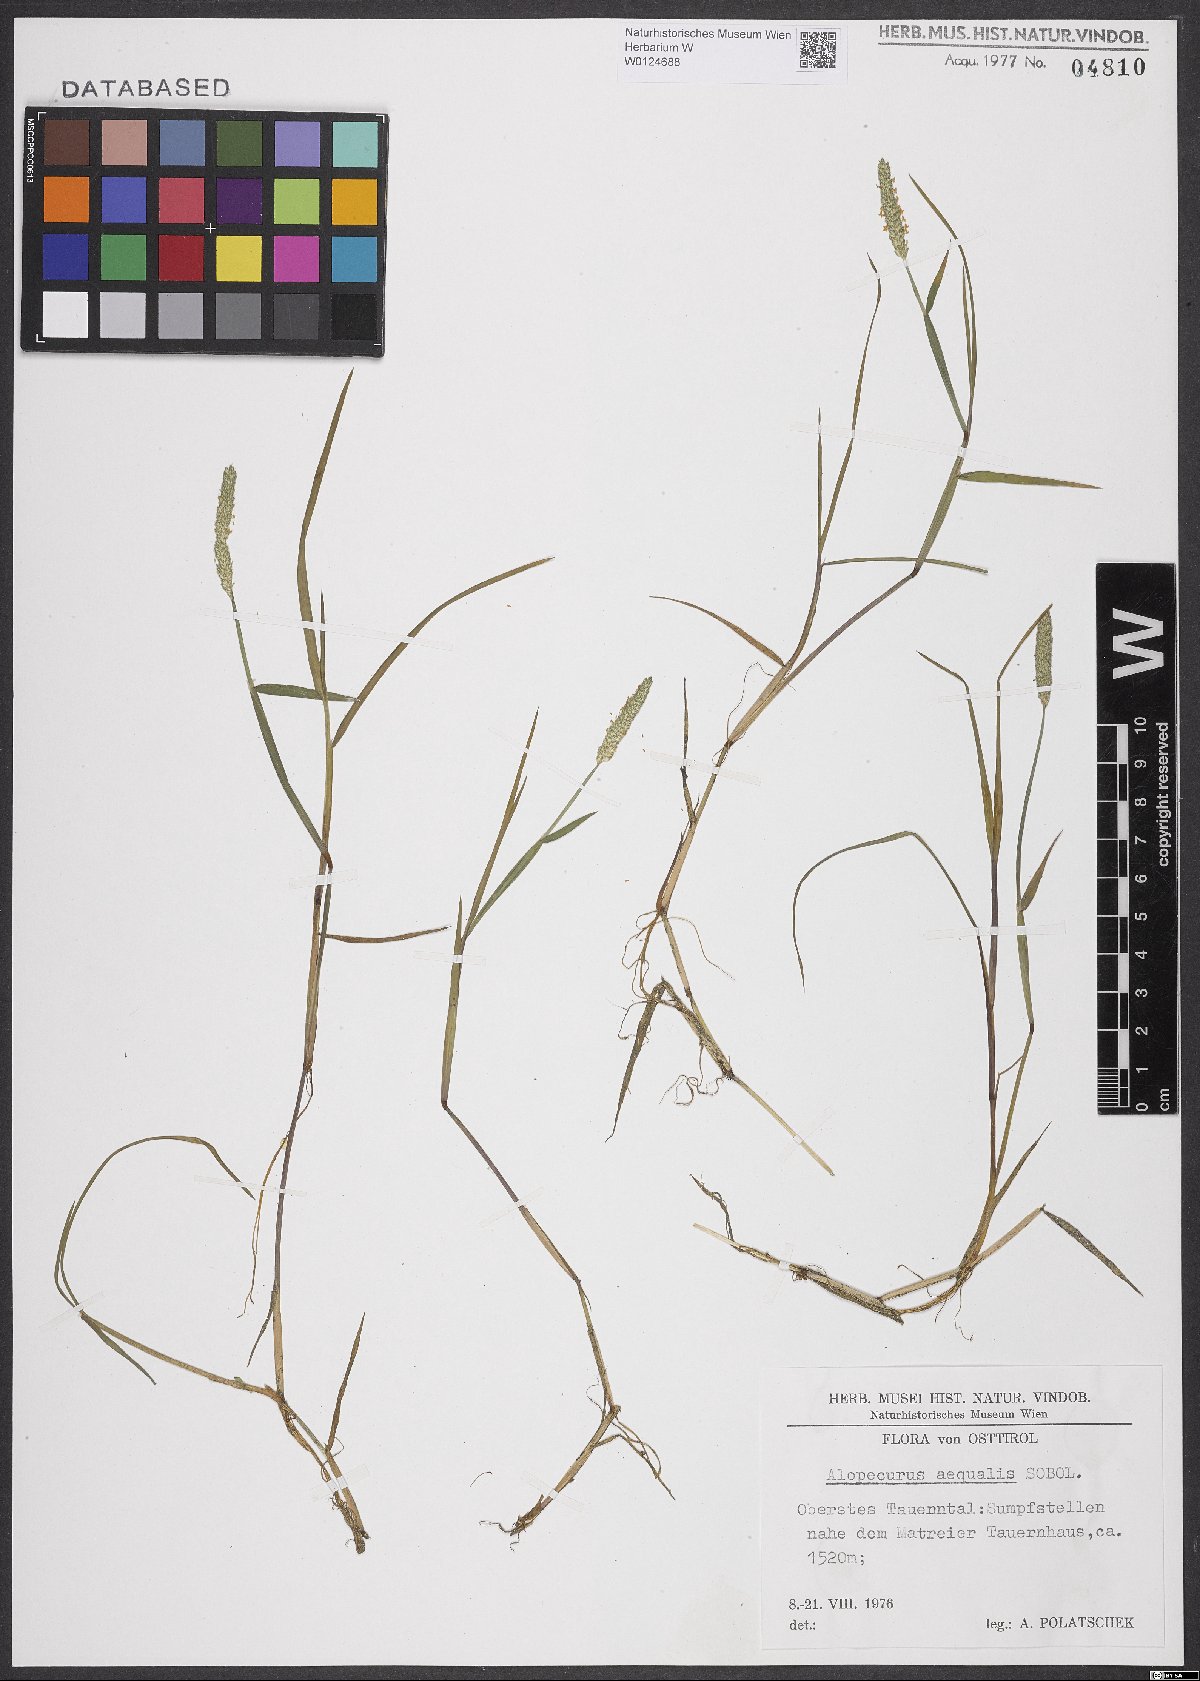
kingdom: Plantae
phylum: Tracheophyta
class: Liliopsida
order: Poales
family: Poaceae
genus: Alopecurus
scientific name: Alopecurus aequalis
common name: Orange foxtail
